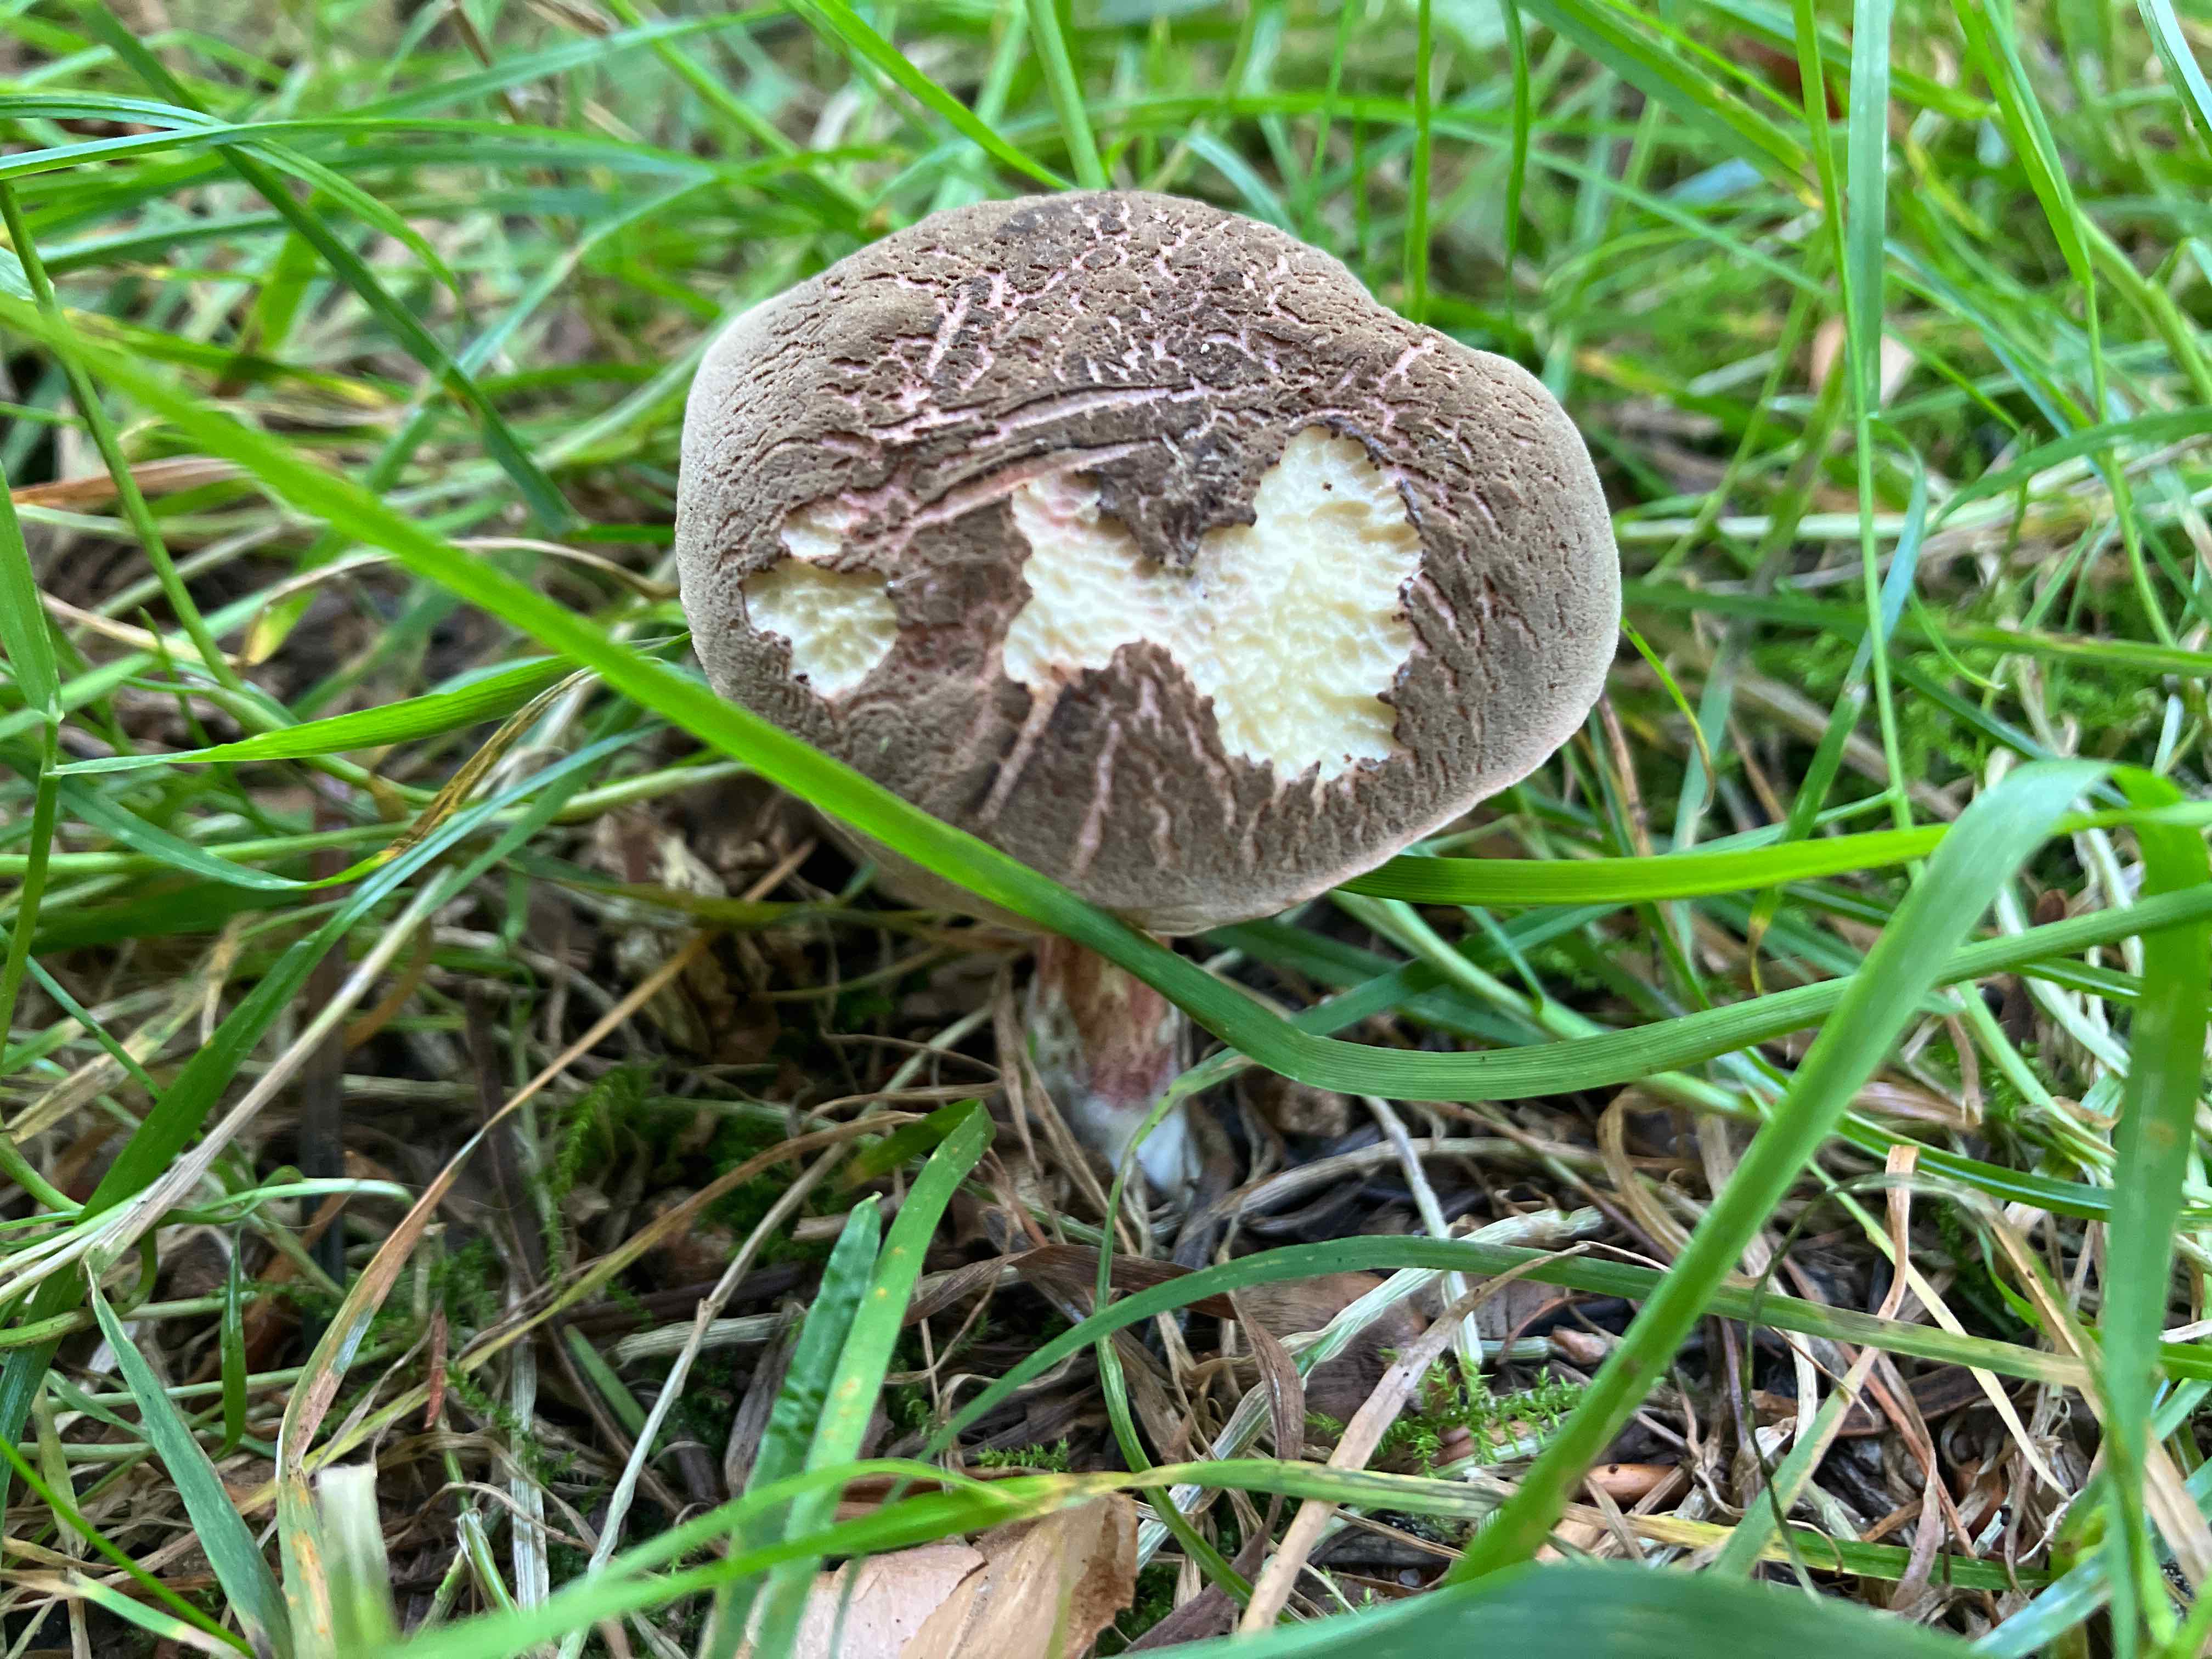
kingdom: Fungi
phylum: Basidiomycota
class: Agaricomycetes
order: Boletales
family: Boletaceae
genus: Xerocomellus
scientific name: Xerocomellus
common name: dværgrørhat
